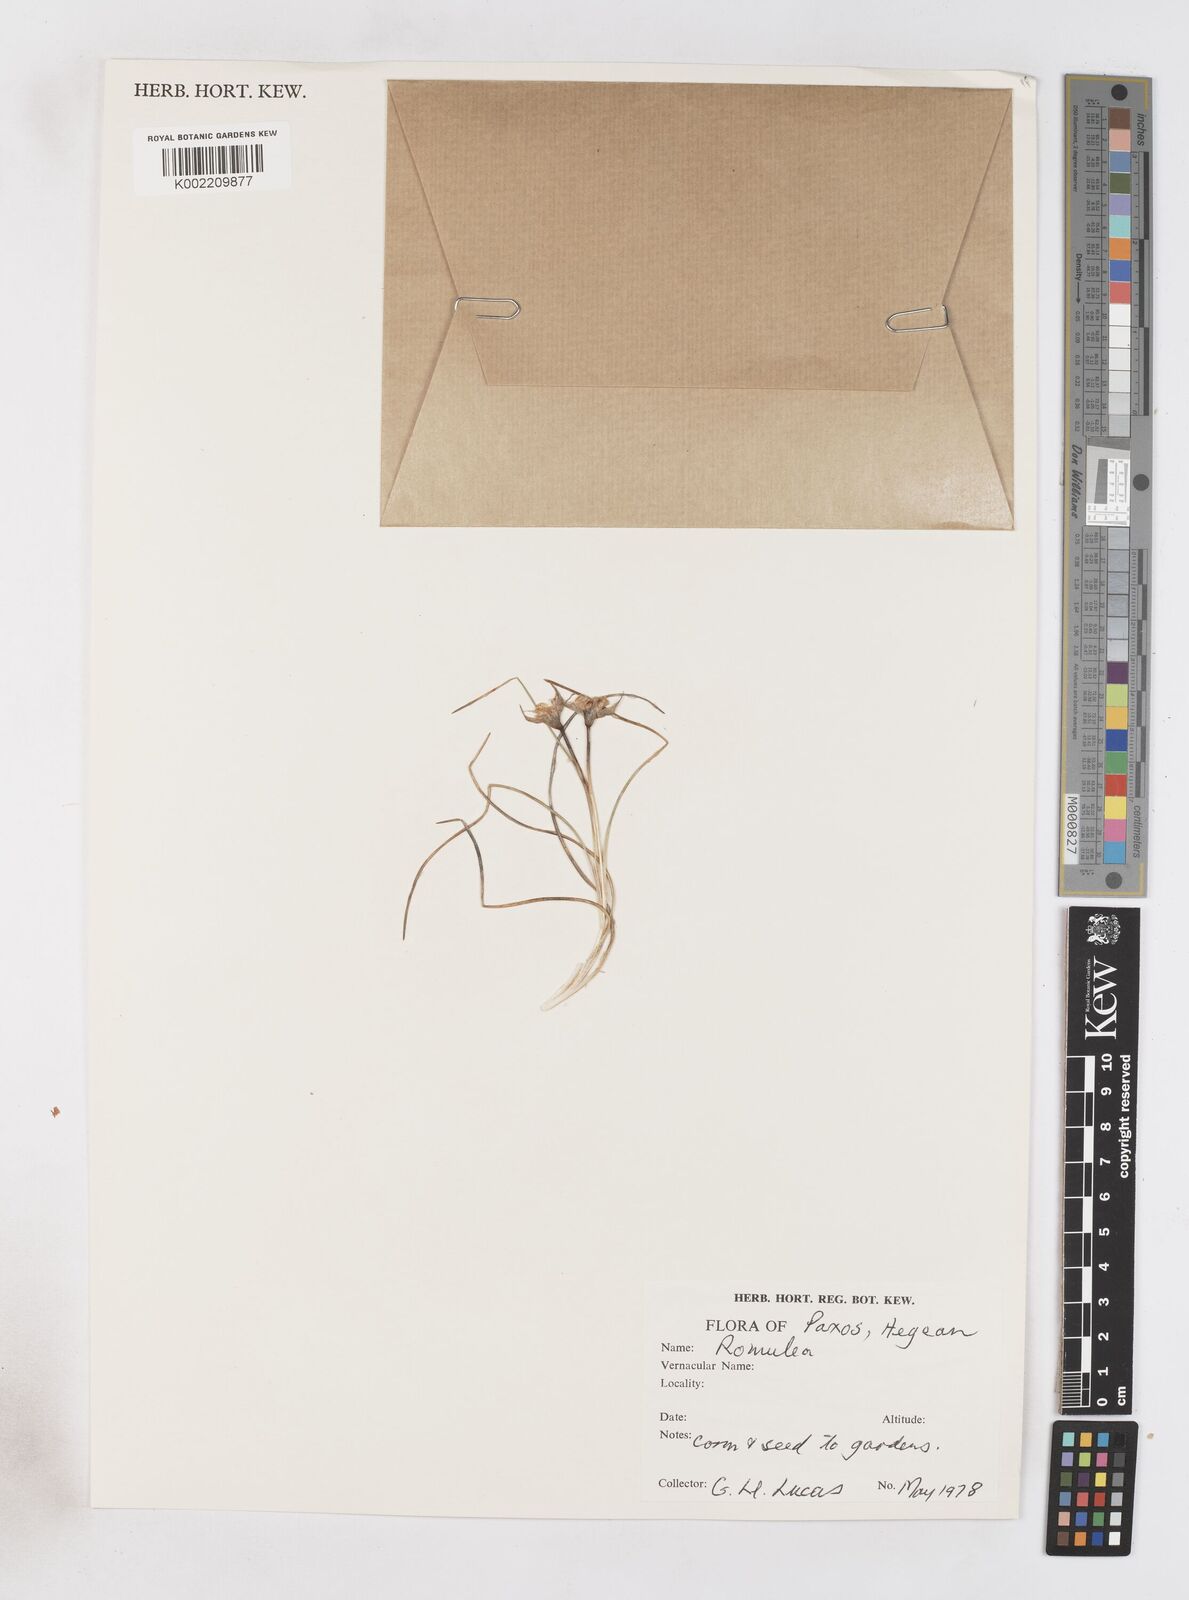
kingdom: Plantae
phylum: Tracheophyta
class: Liliopsida
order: Asparagales
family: Iridaceae
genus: Romulea
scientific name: Romulea
